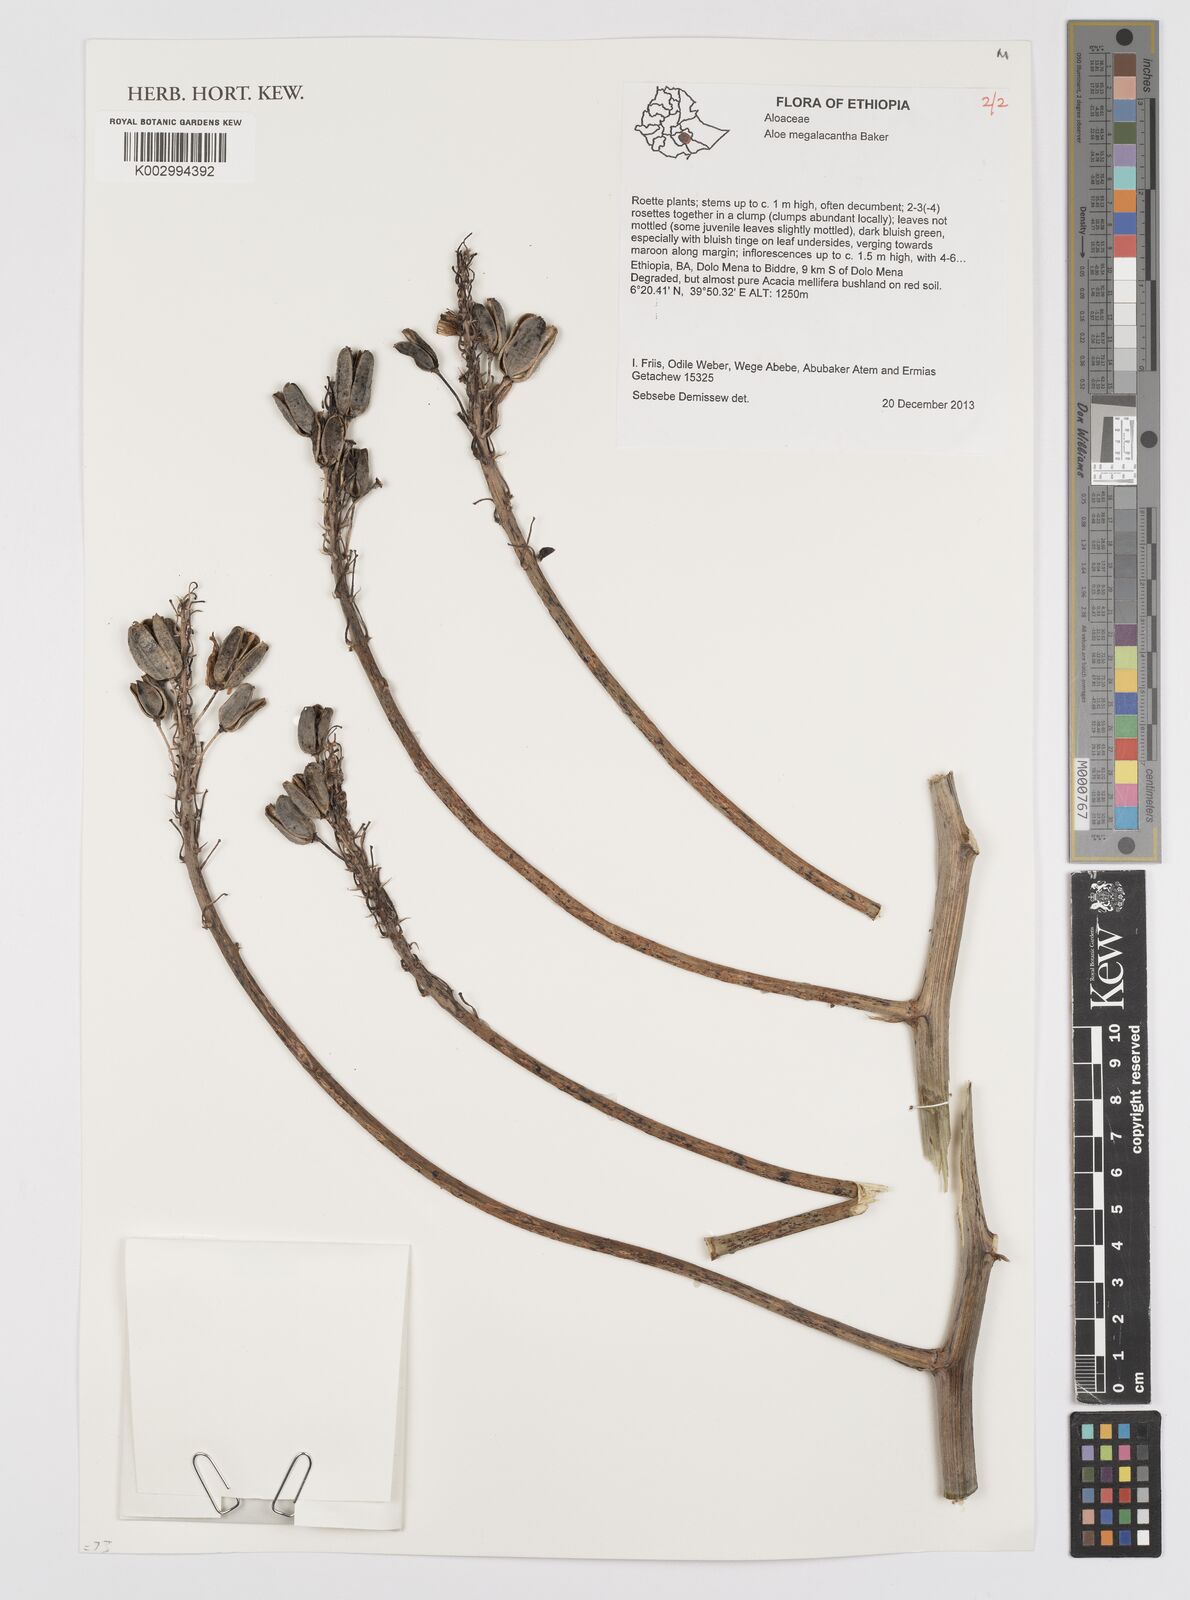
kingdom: Plantae
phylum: Tracheophyta
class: Liliopsida
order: Asparagales
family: Asphodelaceae
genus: Aloe
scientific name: Aloe megalacantha
